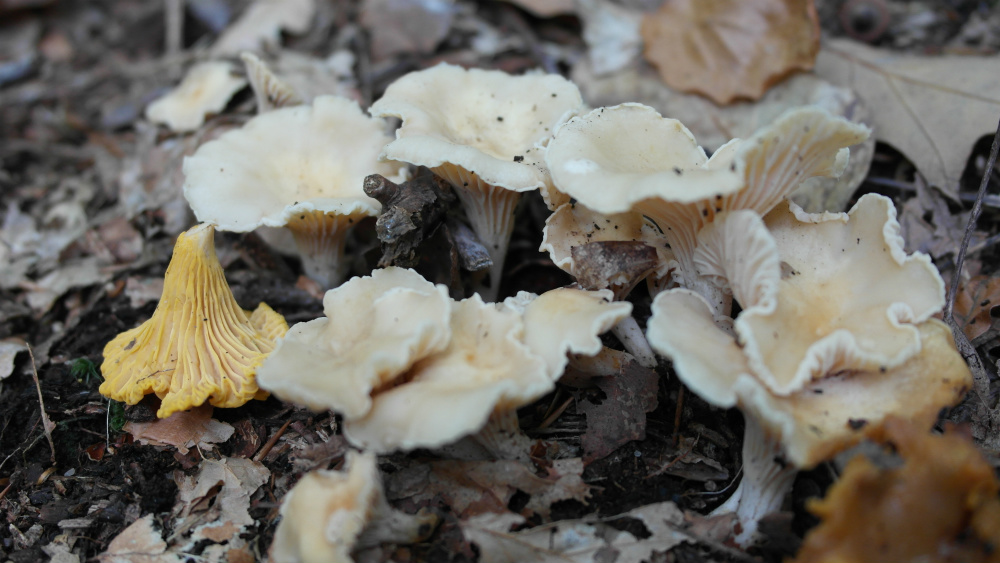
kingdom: Fungi
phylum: Basidiomycota
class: Agaricomycetes
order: Cantharellales
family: Hydnaceae
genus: Cantharellus
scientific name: Cantharellus cibarius
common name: almindelig kantarel
